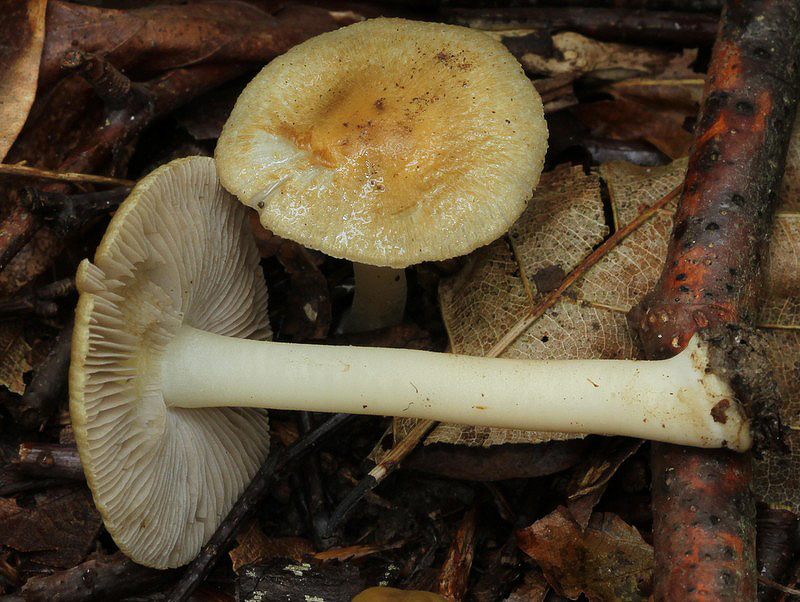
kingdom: Fungi
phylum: Basidiomycota
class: Agaricomycetes
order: Agaricales
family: Inocybaceae
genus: Inocybe
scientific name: Inocybe mixtilis
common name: randknoldet trævlhat
